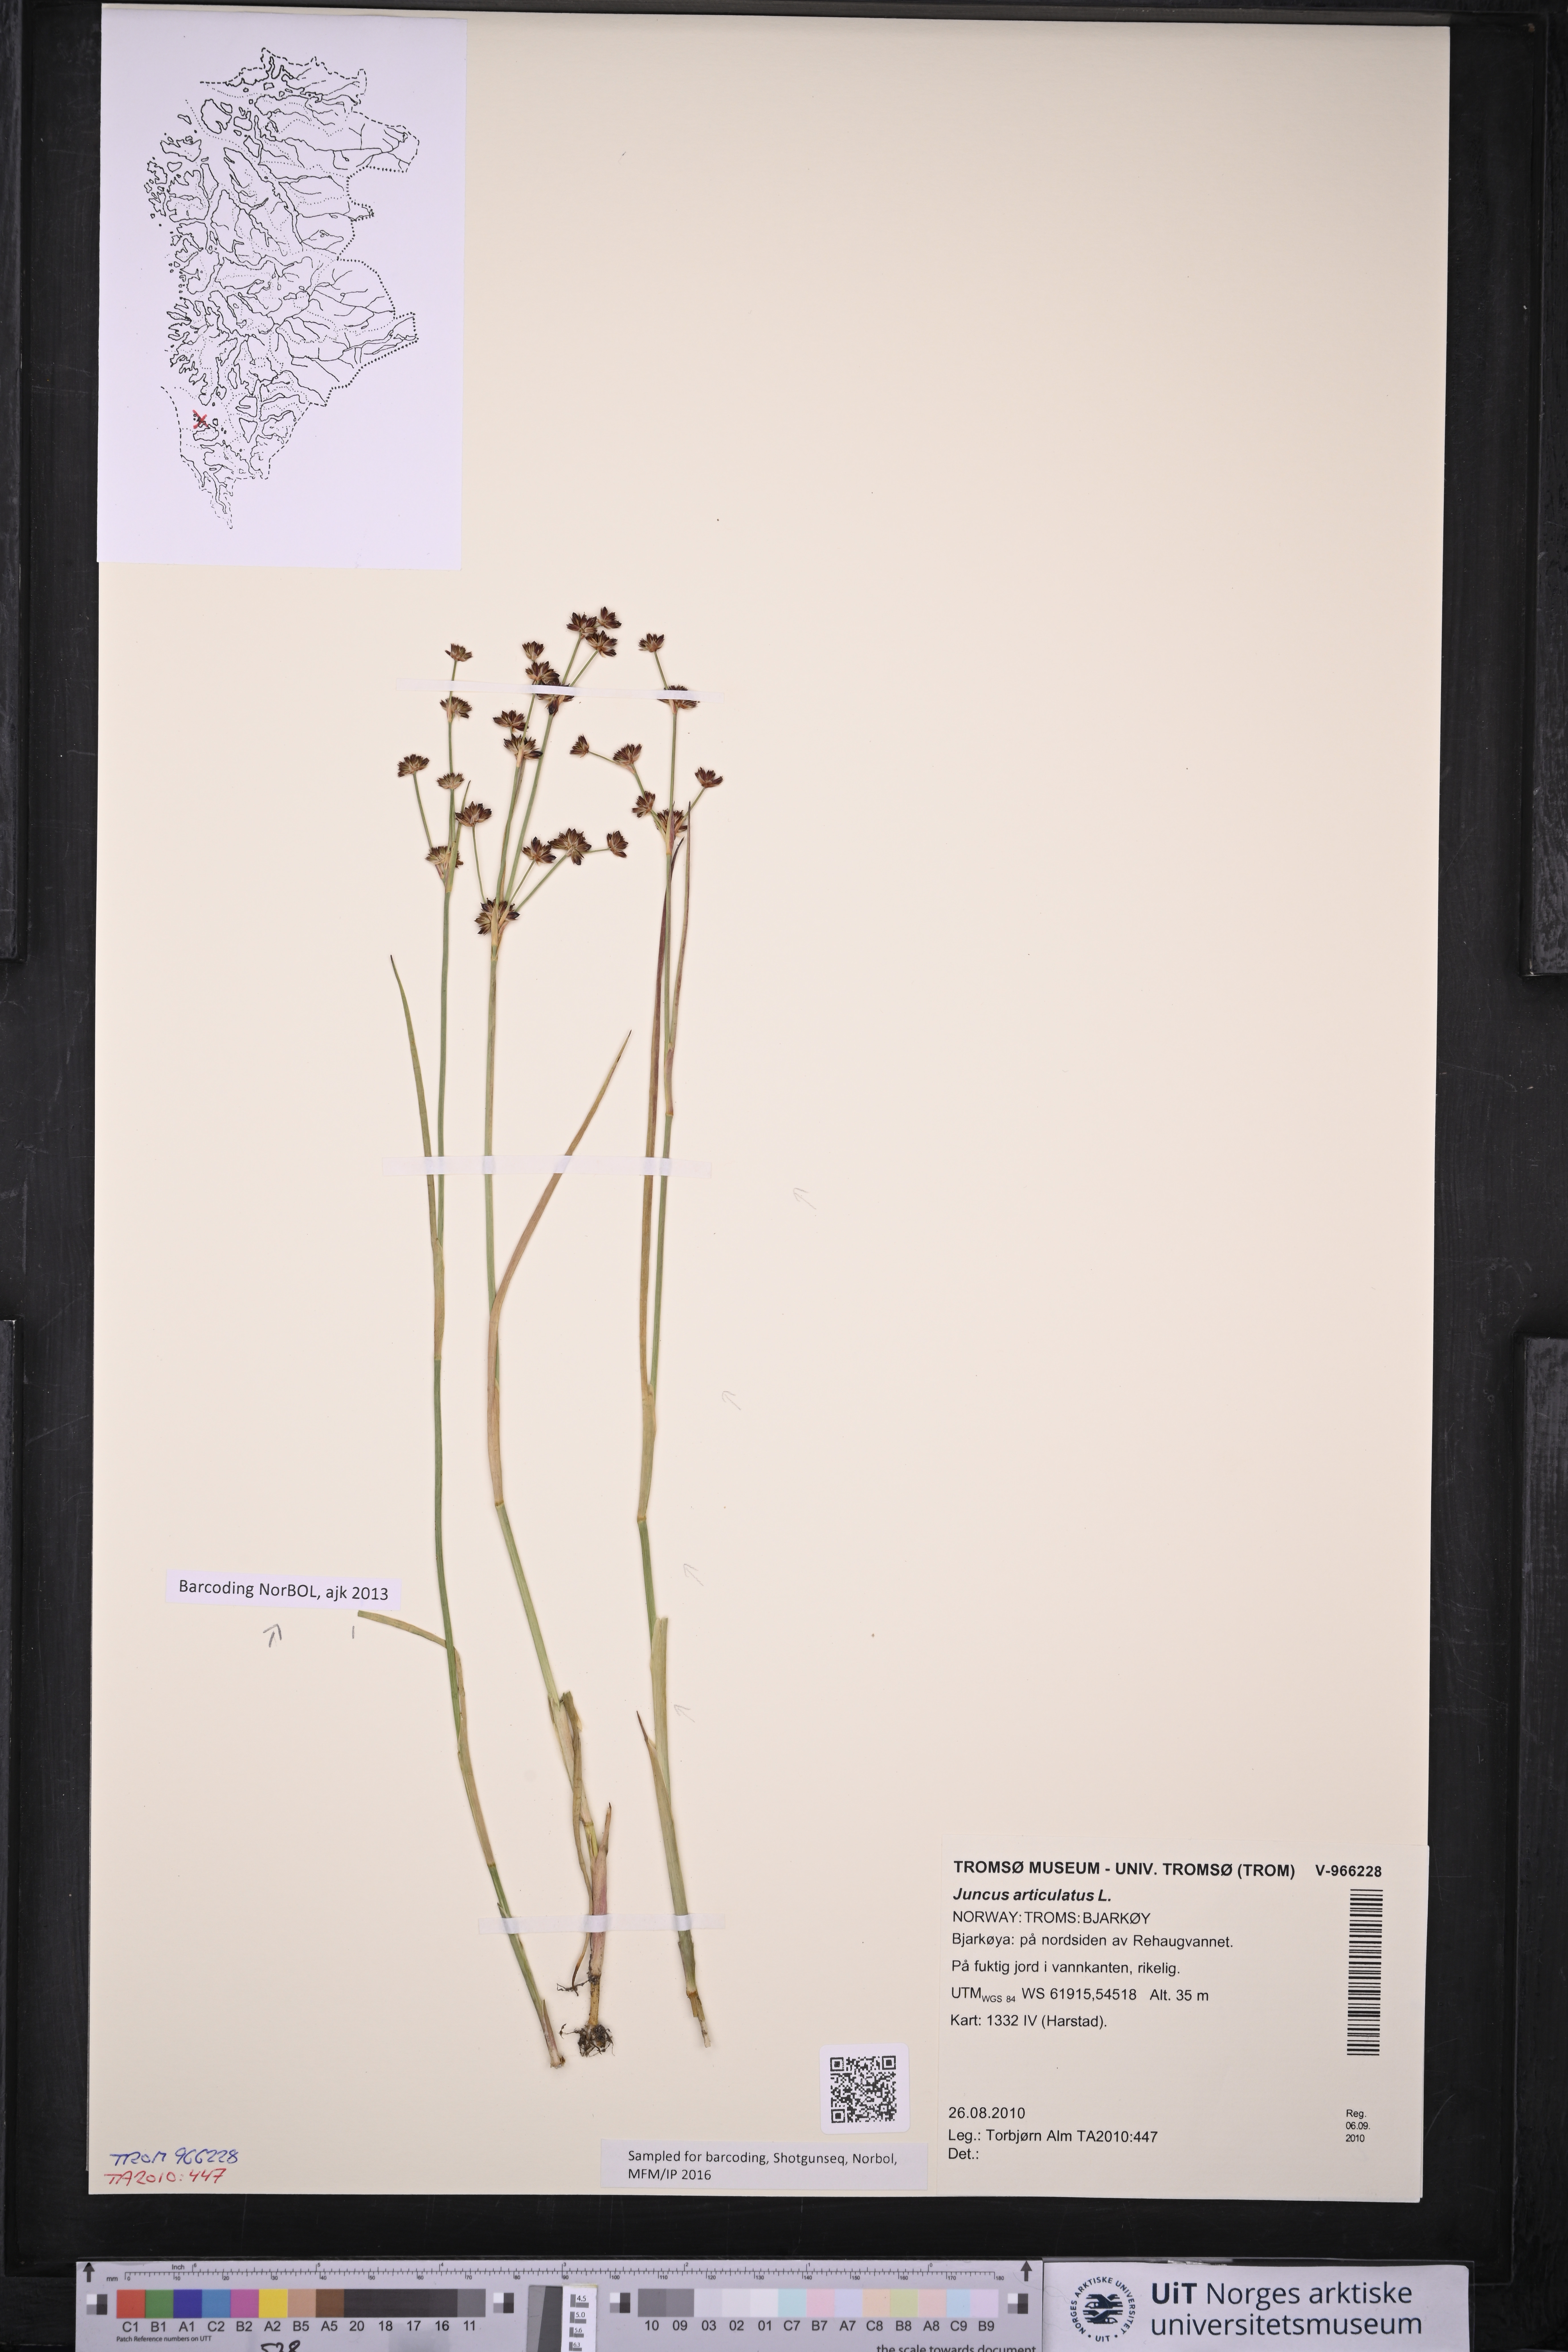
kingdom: Plantae
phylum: Tracheophyta
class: Liliopsida
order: Poales
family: Juncaceae
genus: Juncus
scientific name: Juncus articulatus
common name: Jointed rush
